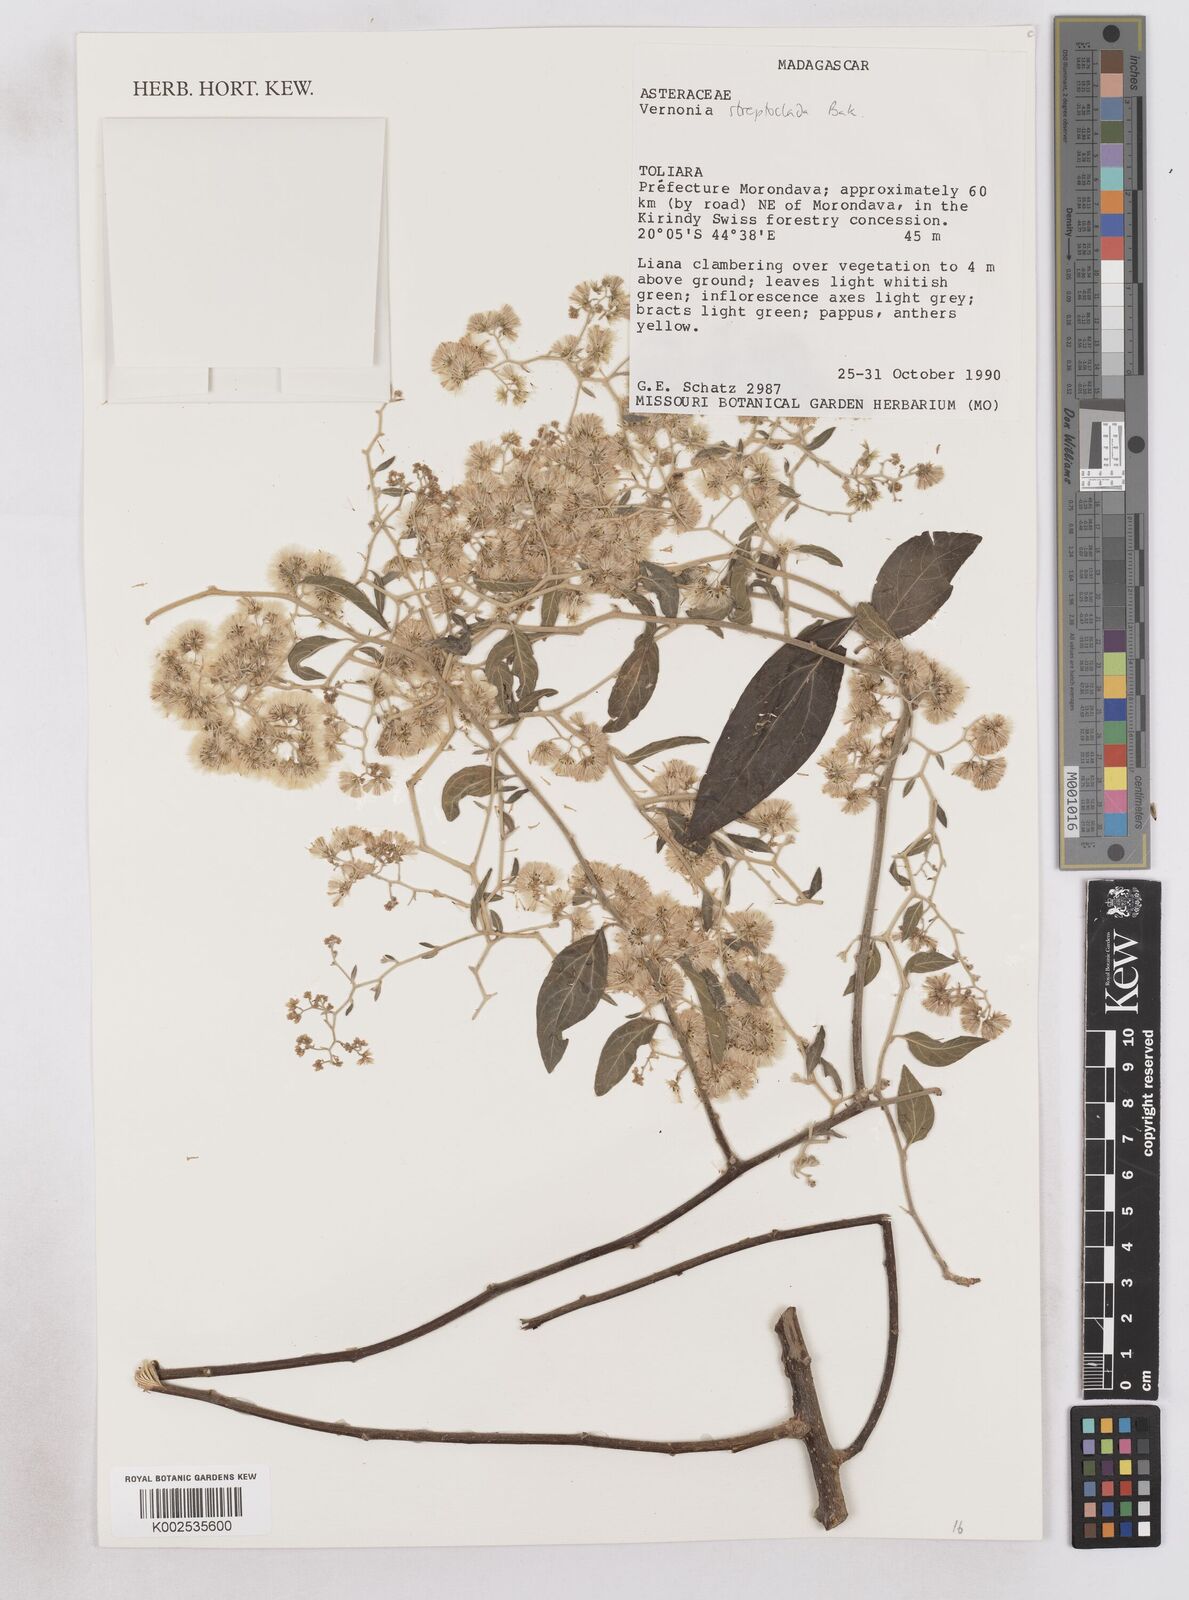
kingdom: Plantae
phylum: Tracheophyta
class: Magnoliopsida
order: Asterales
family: Asteraceae
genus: Distephanus
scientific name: Distephanus streptocladus
